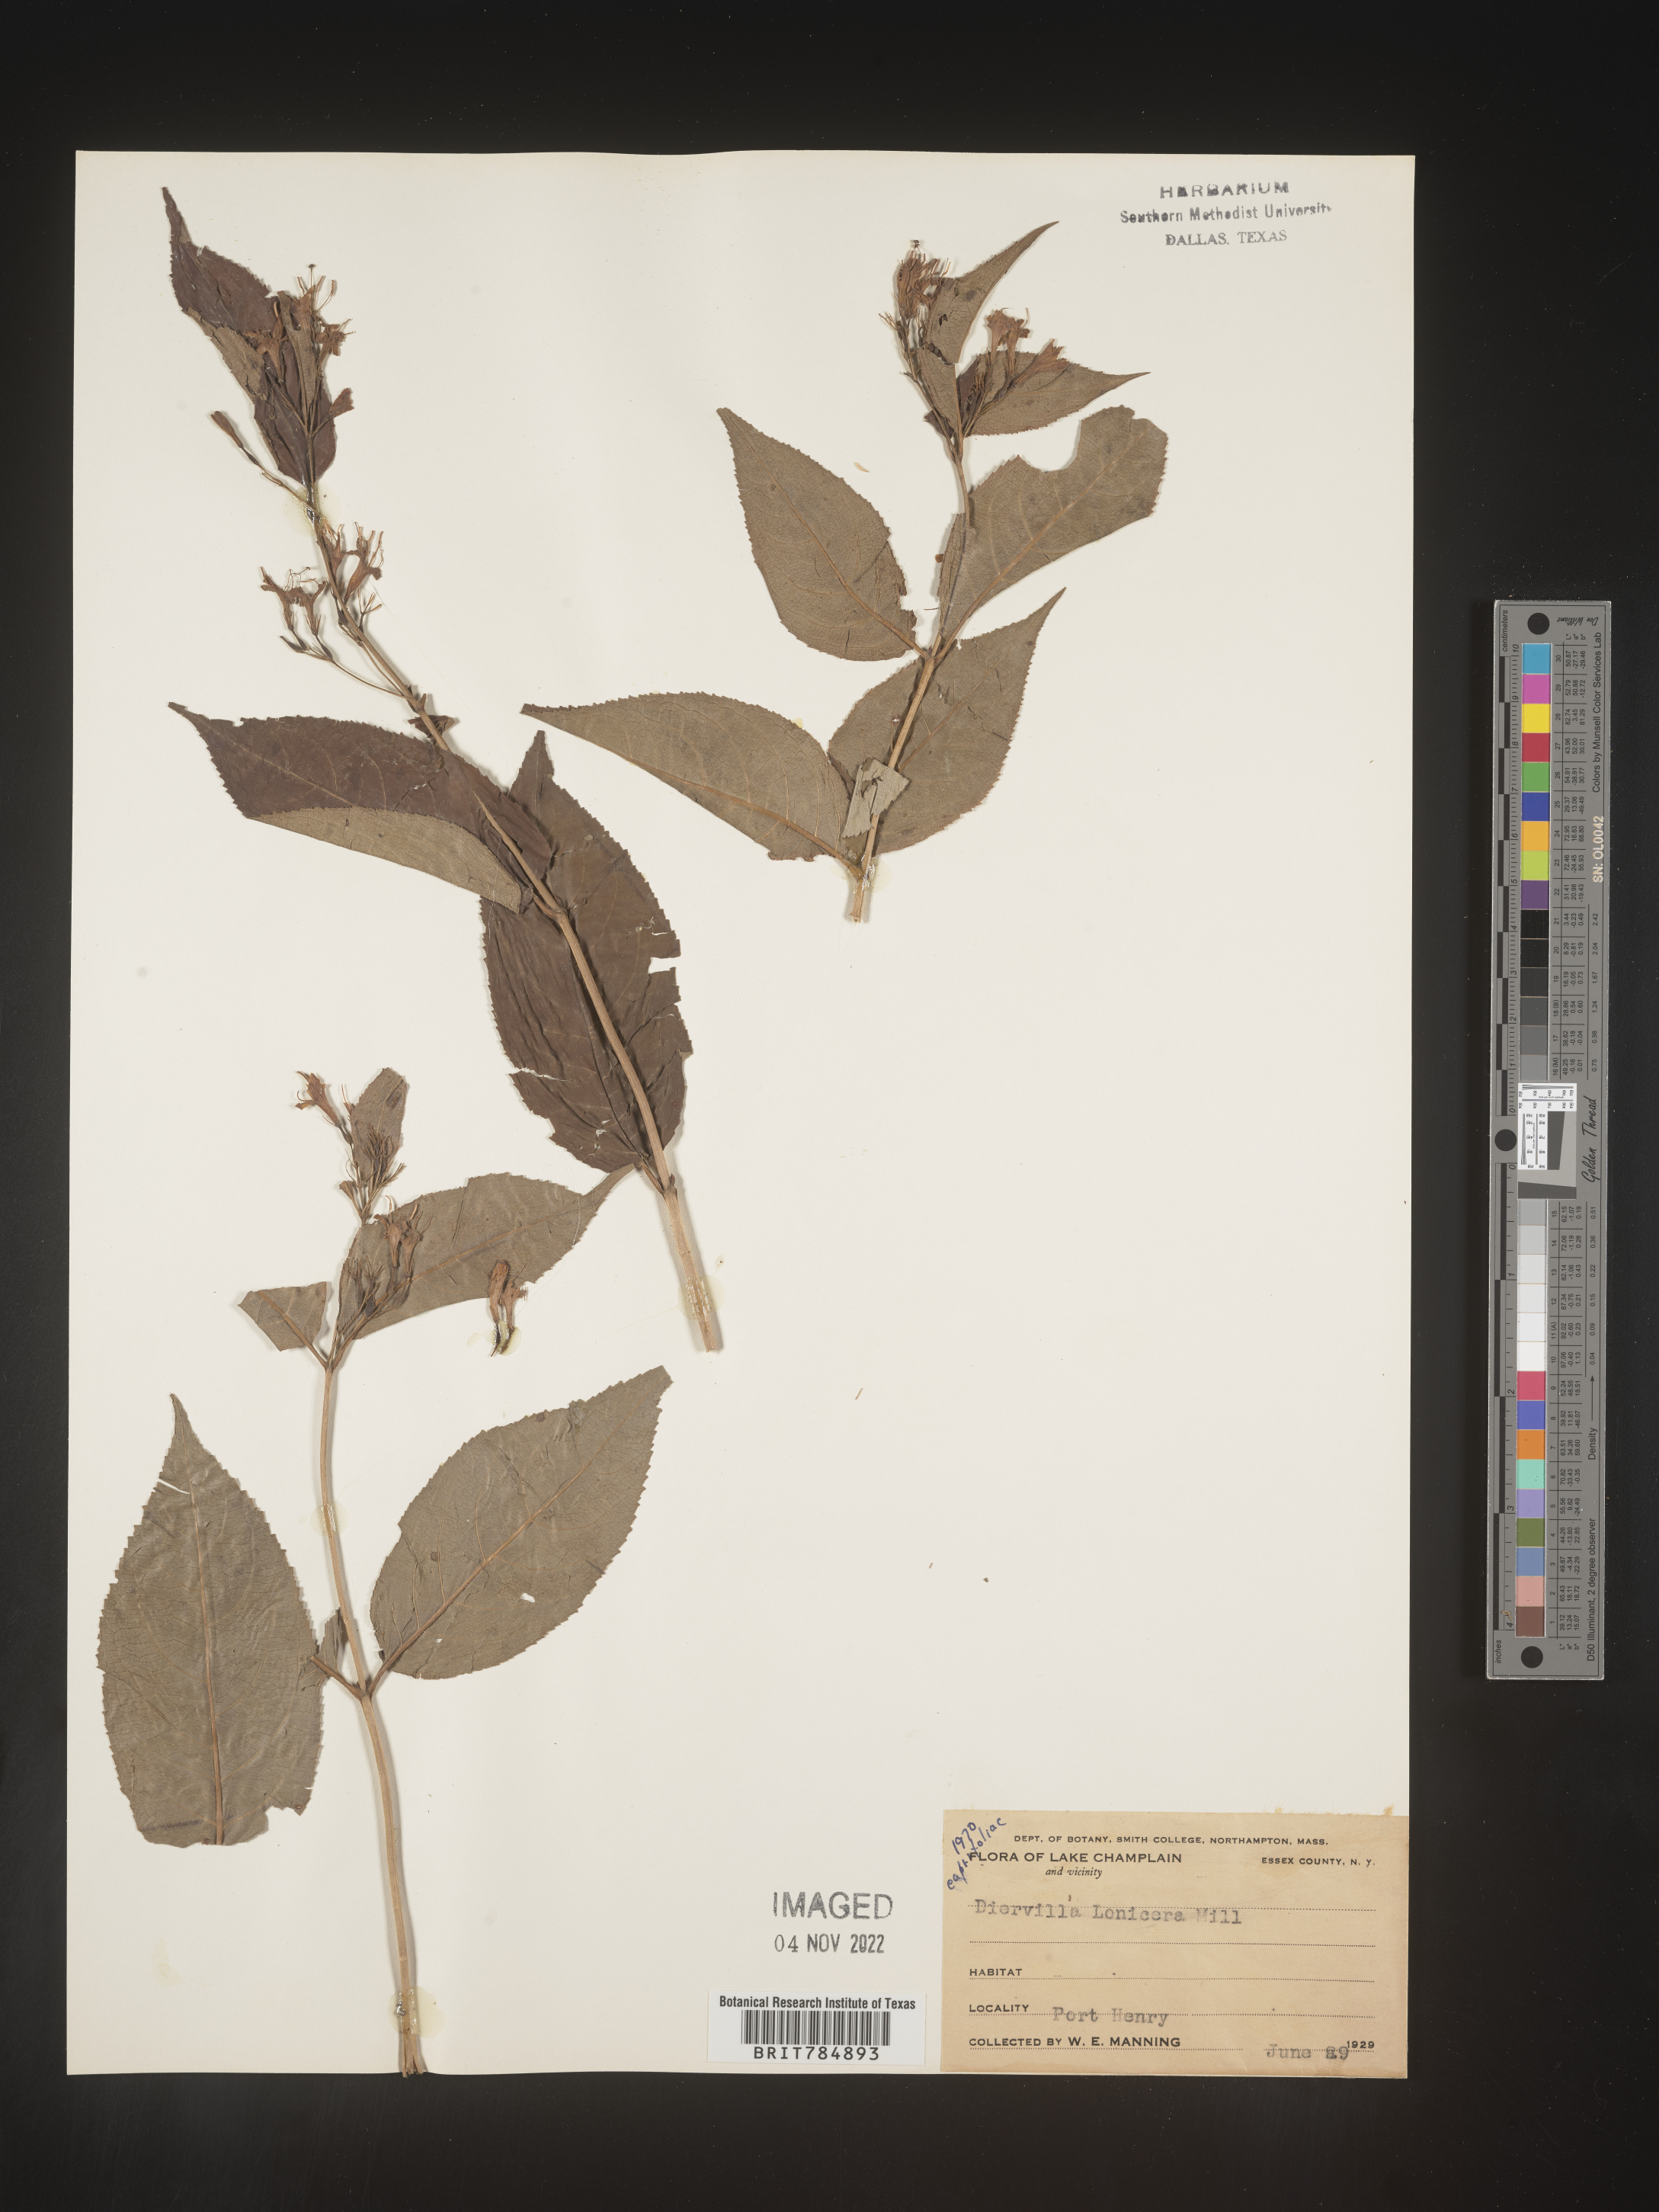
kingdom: Plantae
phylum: Tracheophyta
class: Magnoliopsida
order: Dipsacales
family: Caprifoliaceae
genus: Diervilla
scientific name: Diervilla lonicera
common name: Bush-honeysuckle
